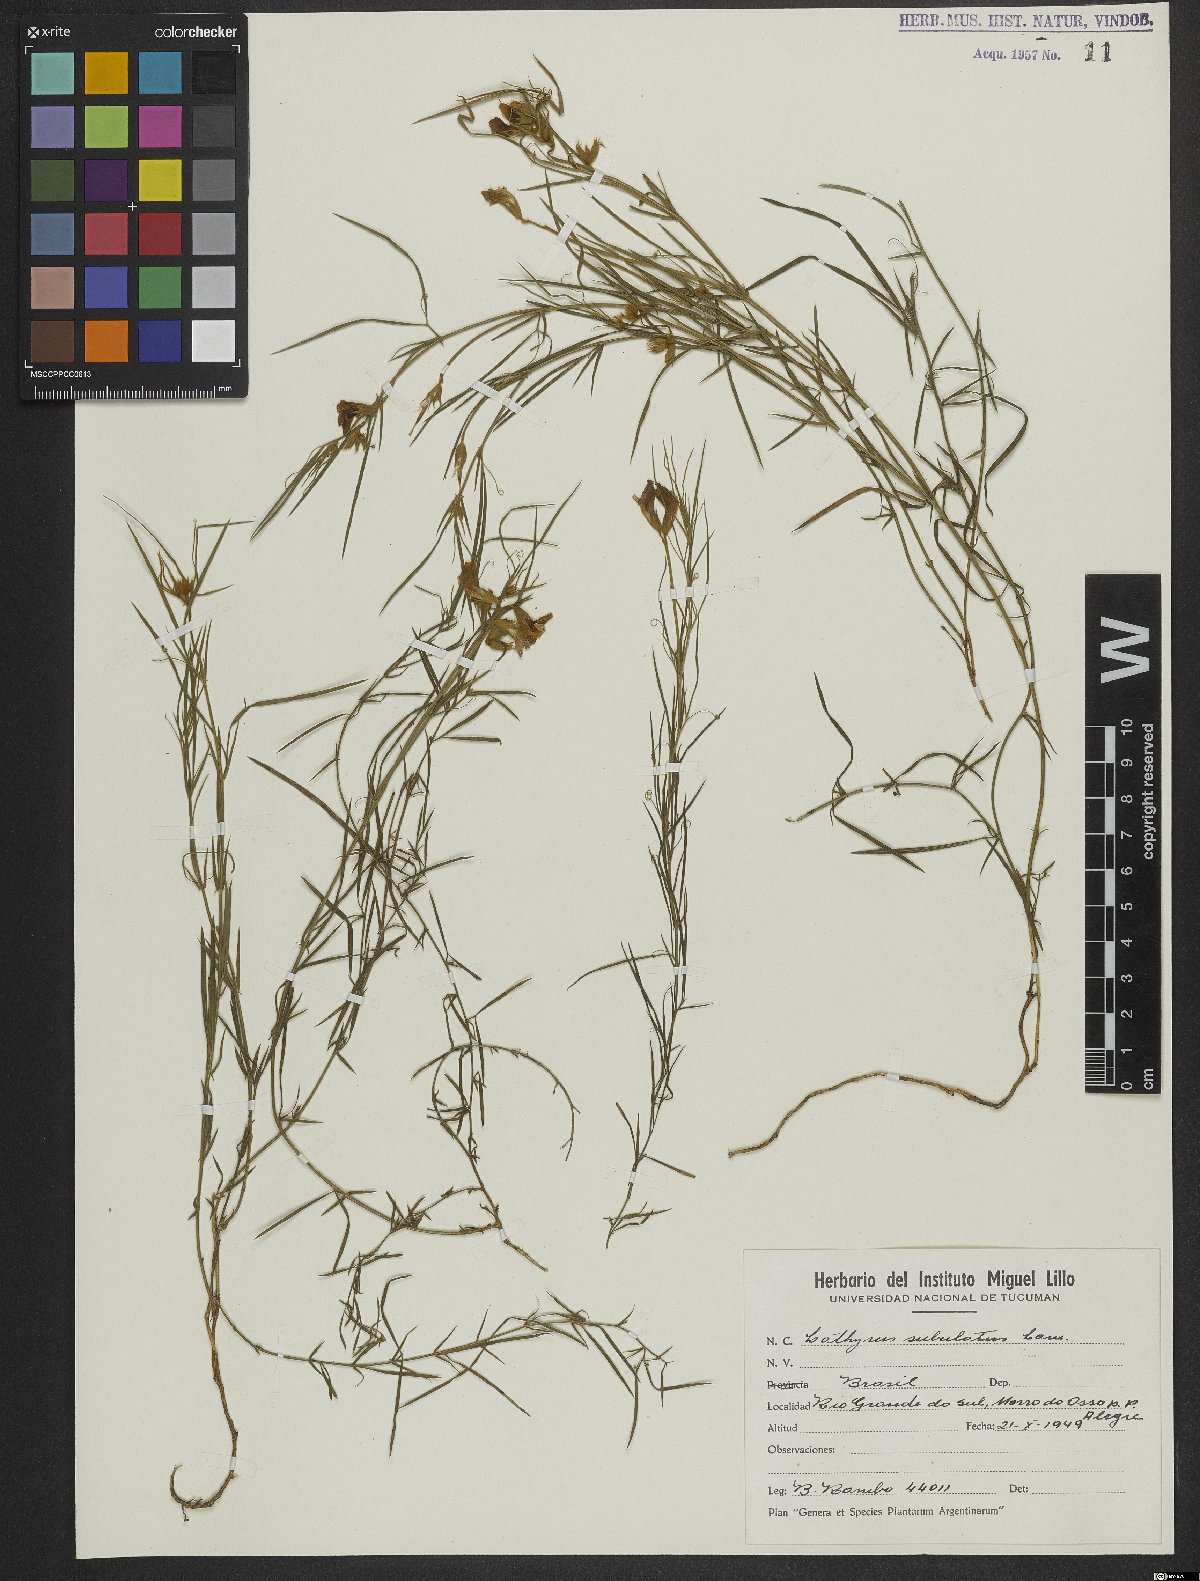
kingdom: Plantae
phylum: Tracheophyta
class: Magnoliopsida
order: Fabales
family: Fabaceae
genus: Lathyrus
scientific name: Lathyrus subulatus
